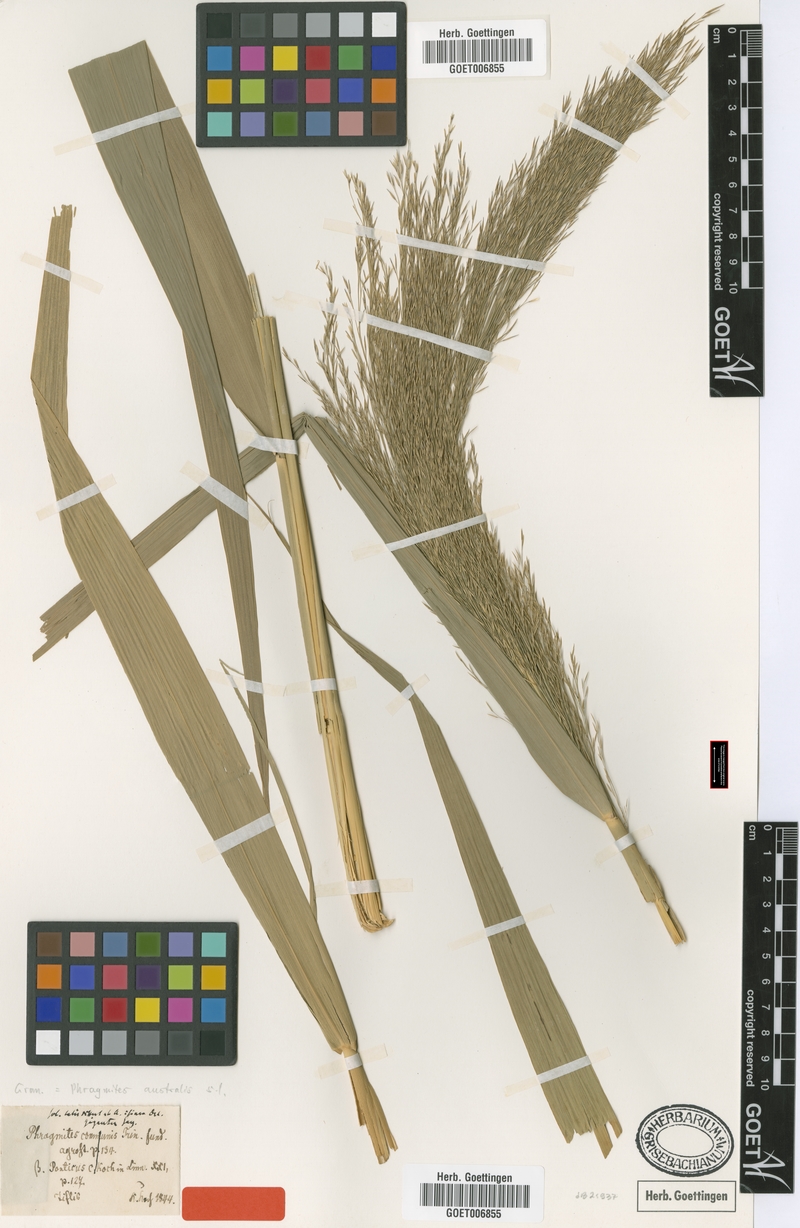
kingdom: Plantae
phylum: Tracheophyta
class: Liliopsida
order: Poales
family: Poaceae
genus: Phragmites
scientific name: Phragmites australis
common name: Common reed
